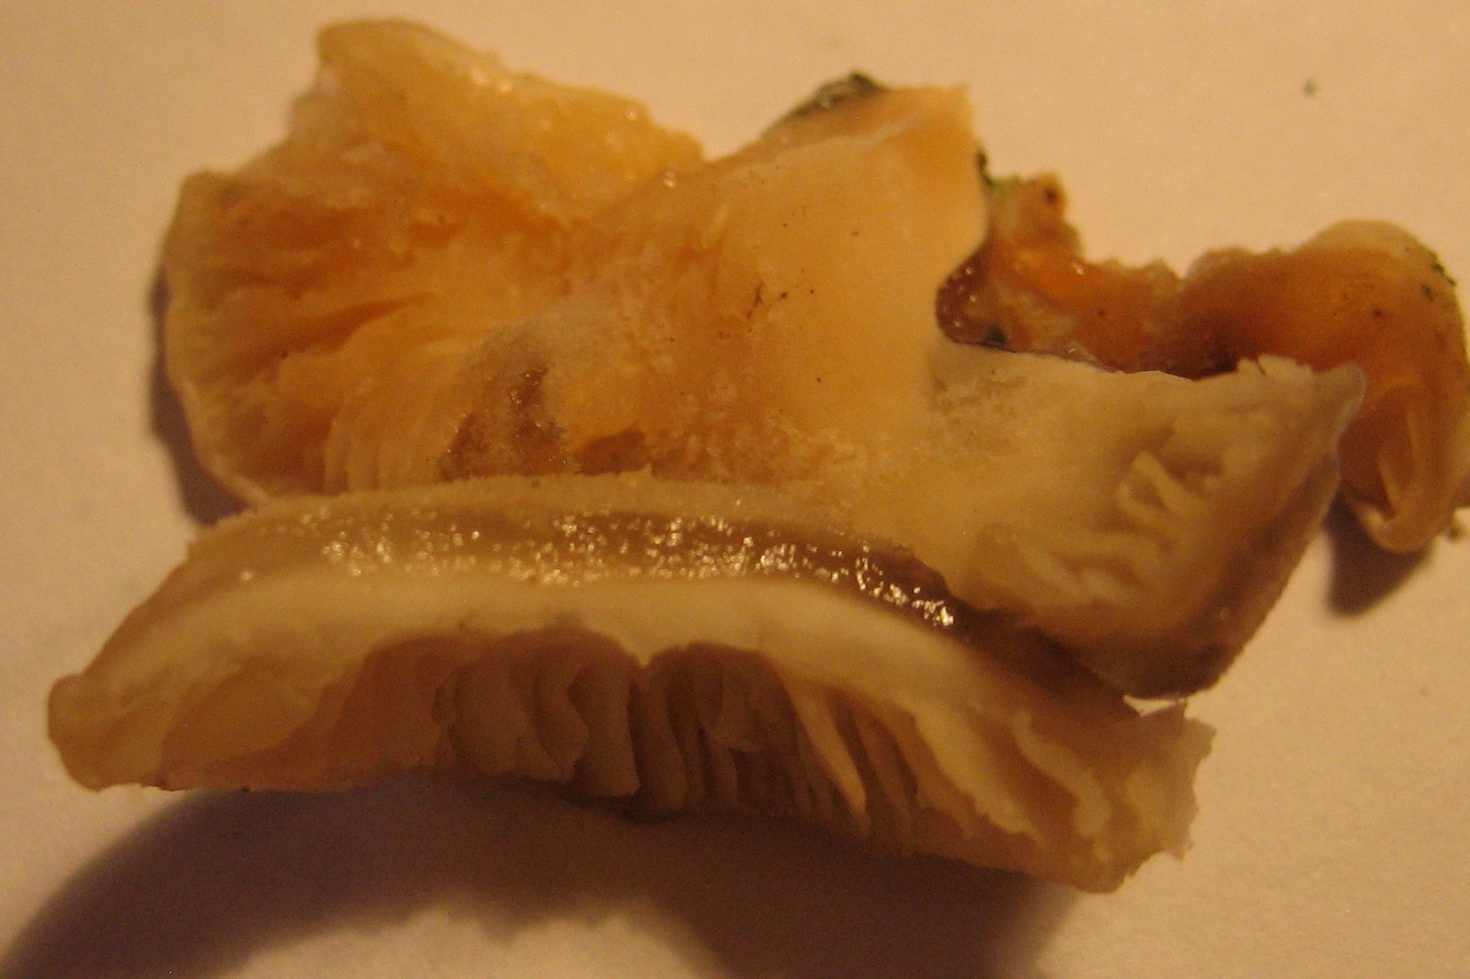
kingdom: Fungi
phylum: Basidiomycota
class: Agaricomycetes
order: Agaricales
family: Pleurotaceae
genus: Hohenbuehelia
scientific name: Hohenbuehelia mastrucata
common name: skællet filthat
